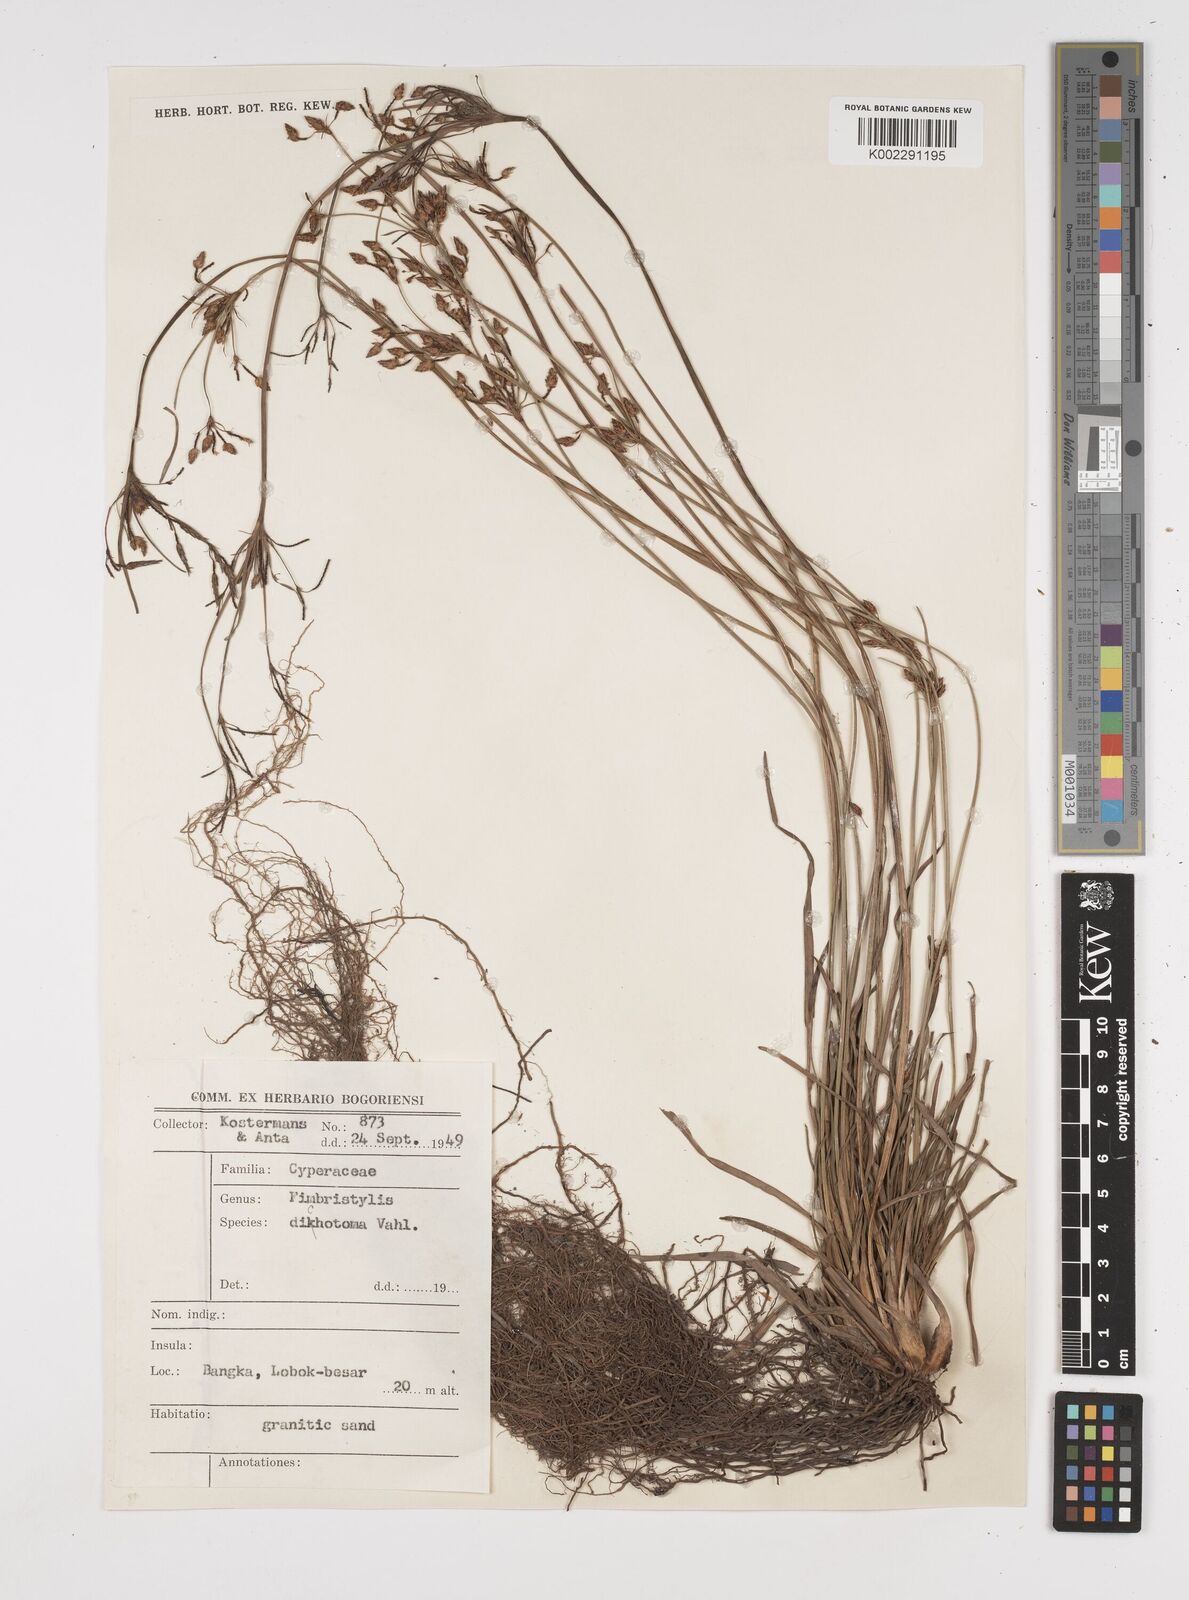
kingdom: Plantae
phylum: Tracheophyta
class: Liliopsida
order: Poales
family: Cyperaceae
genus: Fimbristylis
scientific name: Fimbristylis dichotoma
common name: Forked fimbry
